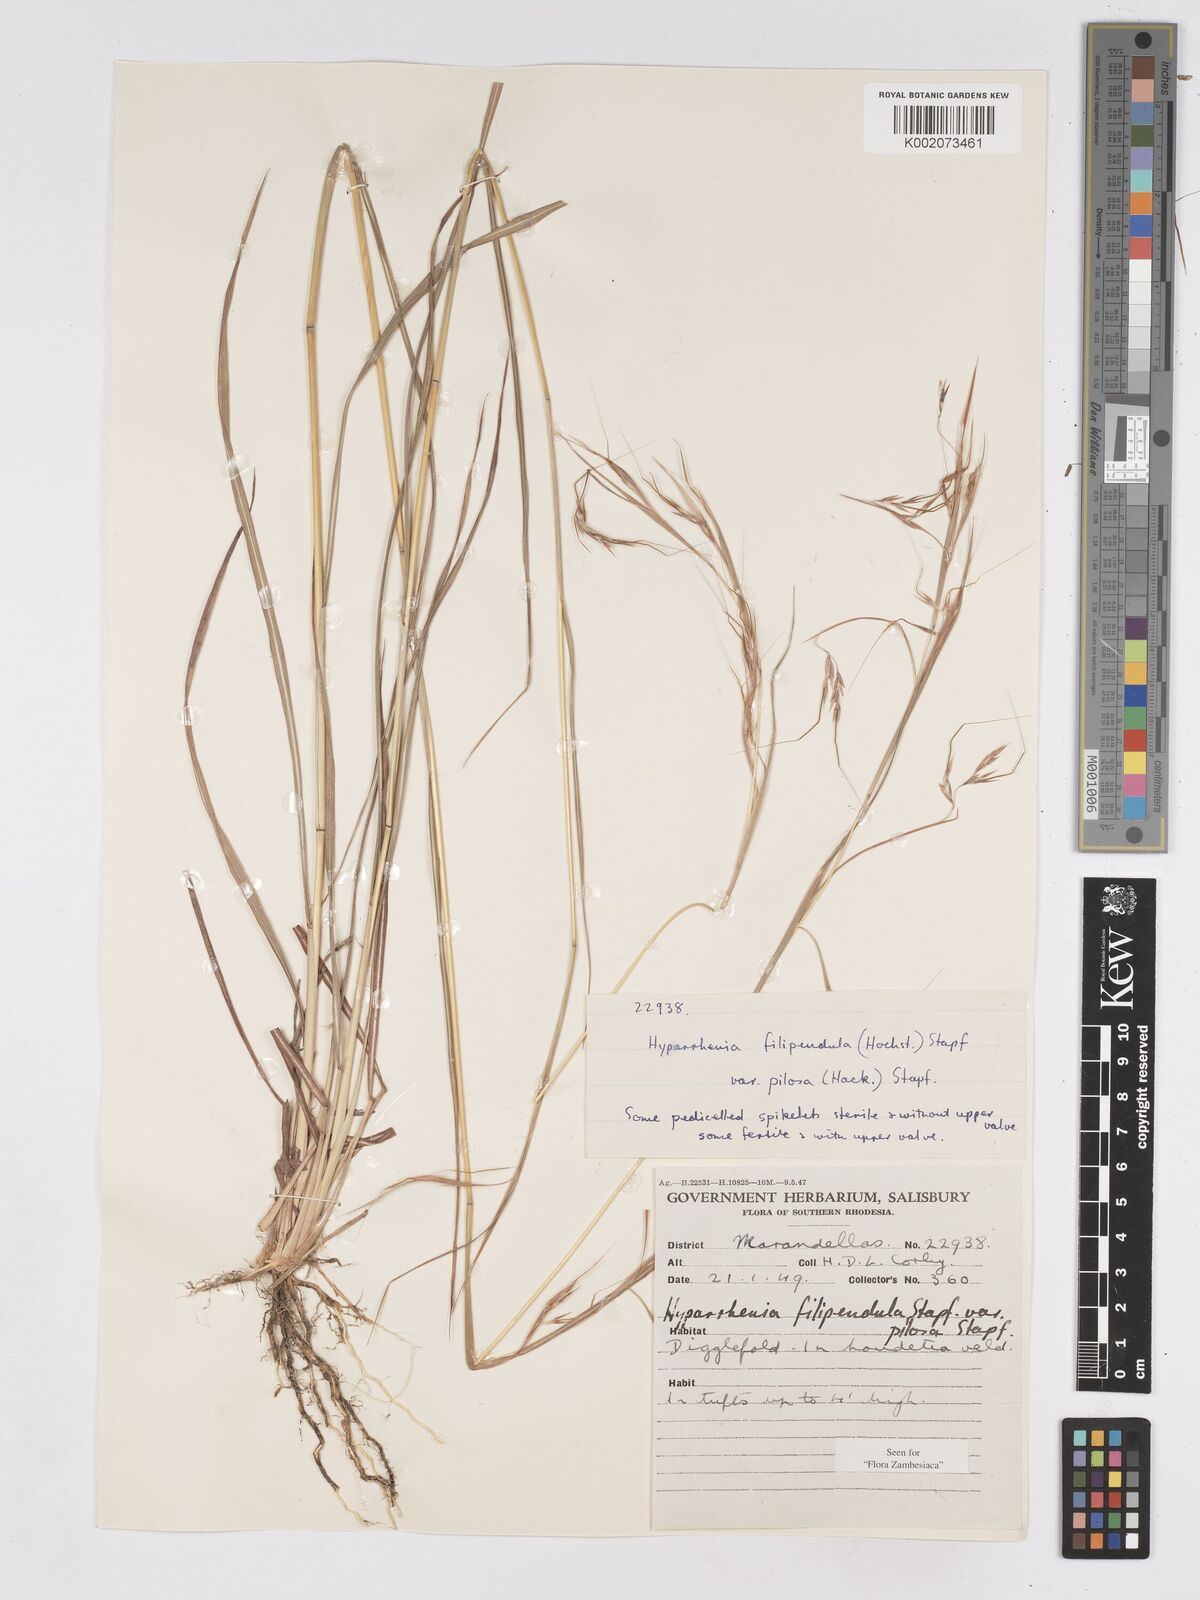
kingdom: Plantae
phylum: Tracheophyta
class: Liliopsida
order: Poales
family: Poaceae
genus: Hyparrhenia
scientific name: Hyparrhenia filipendula
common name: Tambookie grass
